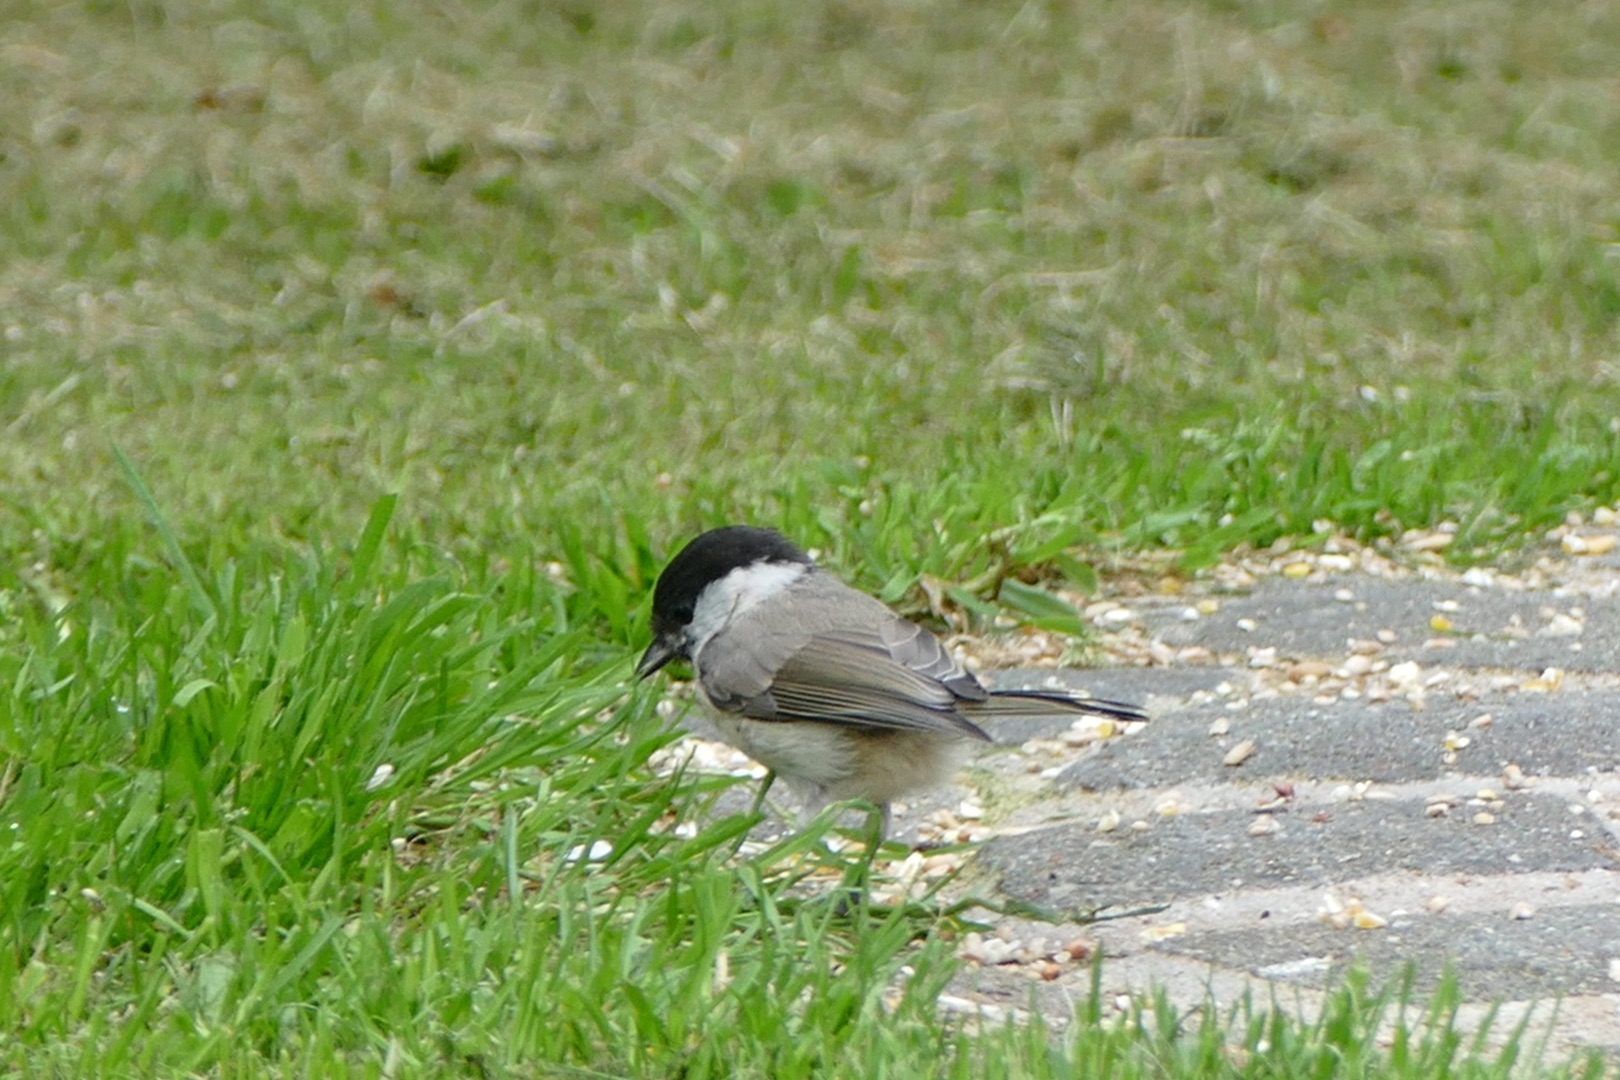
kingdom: Animalia
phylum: Chordata
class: Aves
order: Passeriformes
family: Paridae
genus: Poecile
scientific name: Poecile palustris
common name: Sumpmejse
